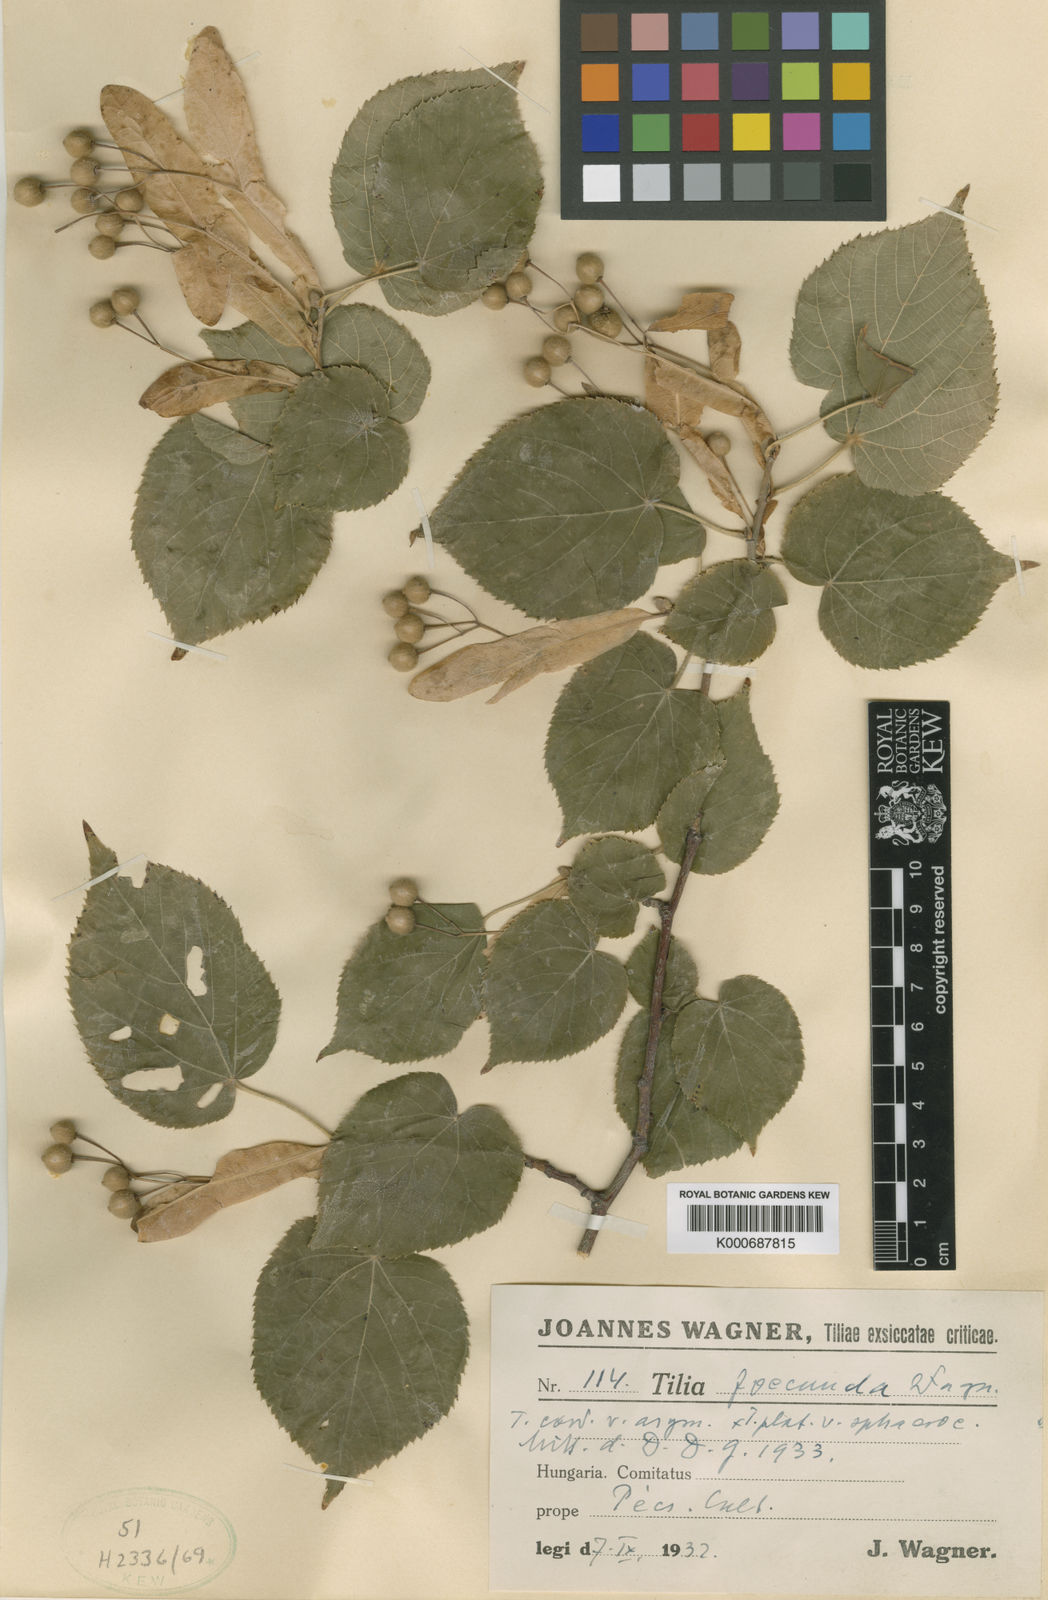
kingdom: Plantae
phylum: Tracheophyta
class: Magnoliopsida
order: Malvales
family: Malvaceae
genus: Tilia
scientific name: Tilia
